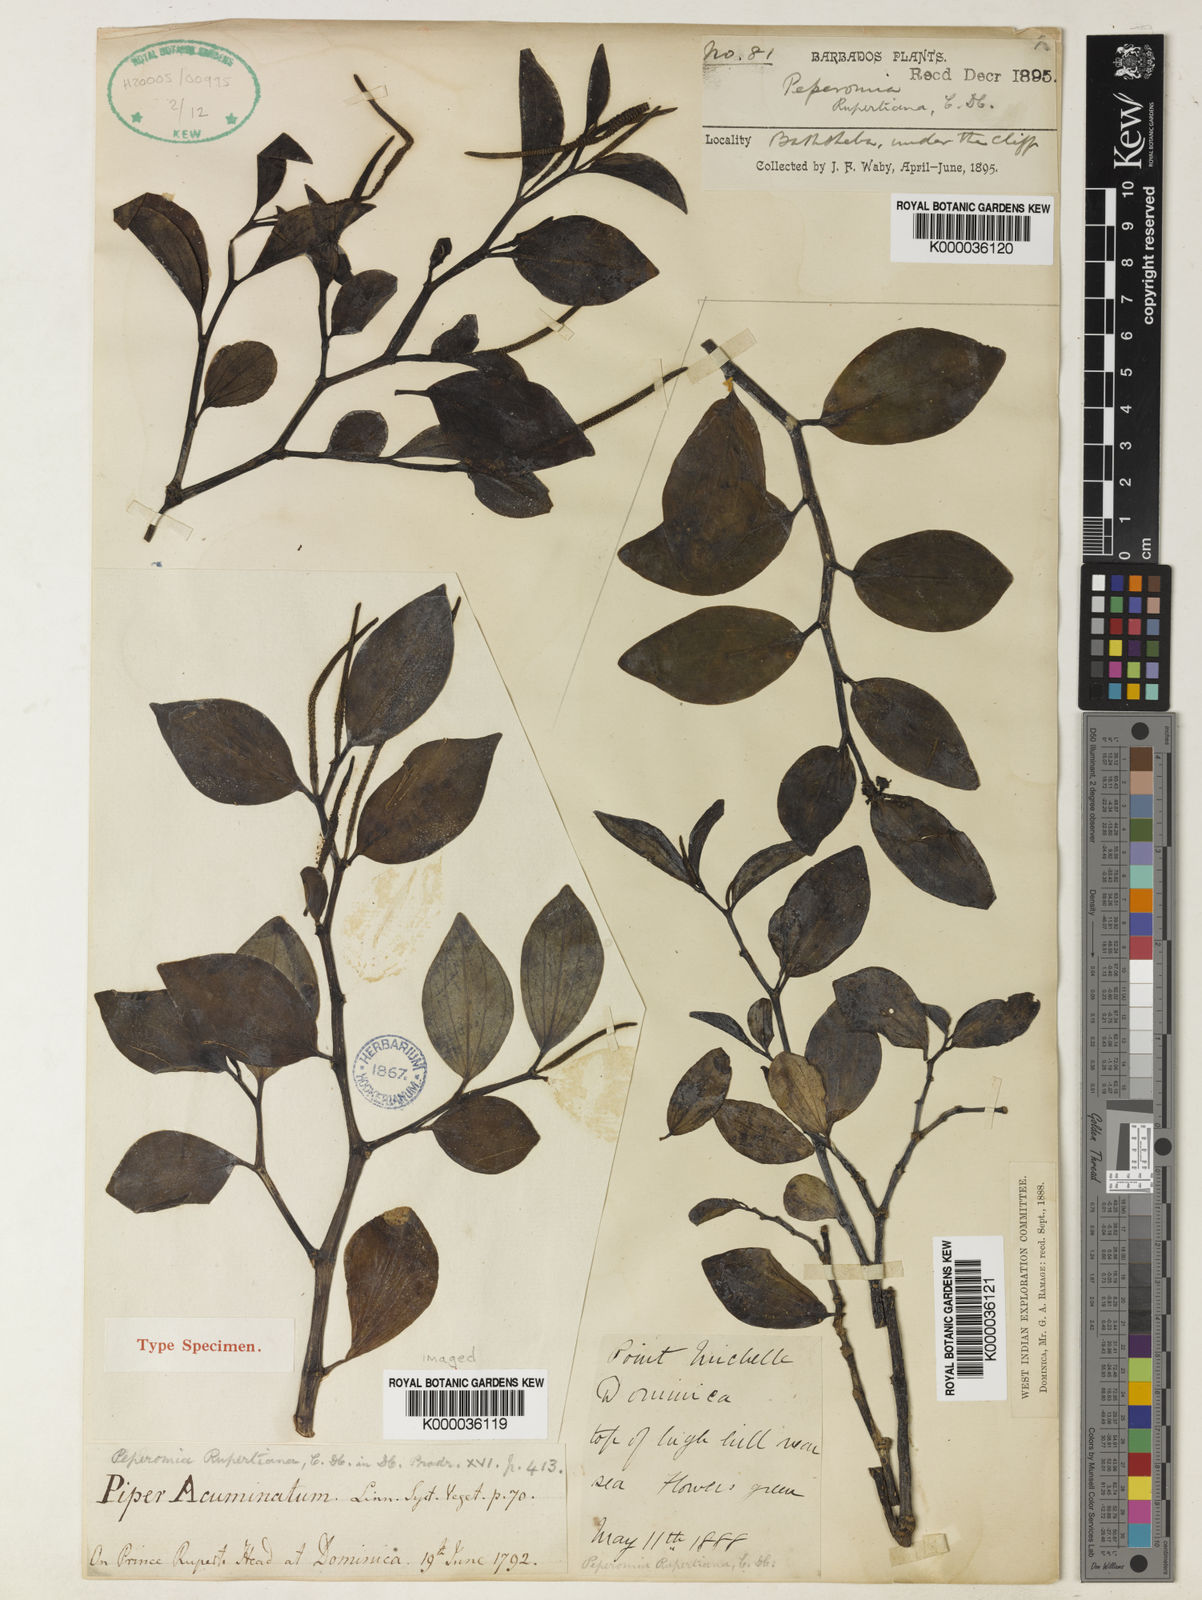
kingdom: Plantae
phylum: Tracheophyta
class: Magnoliopsida
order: Piperales
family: Piperaceae
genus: Peperomia
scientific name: Peperomia myrtifolia
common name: Myrtleleaf peperomia
